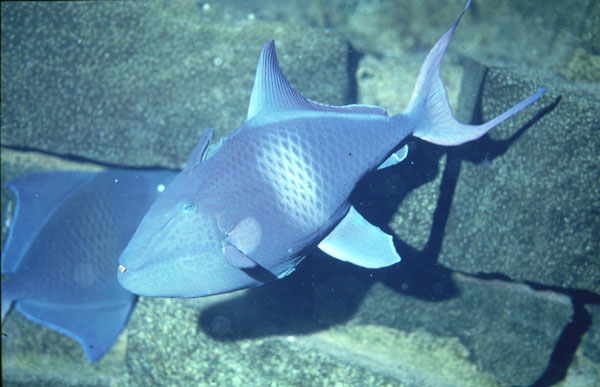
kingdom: Animalia
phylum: Chordata
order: Tetraodontiformes
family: Balistidae
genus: Odonus
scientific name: Odonus niger
